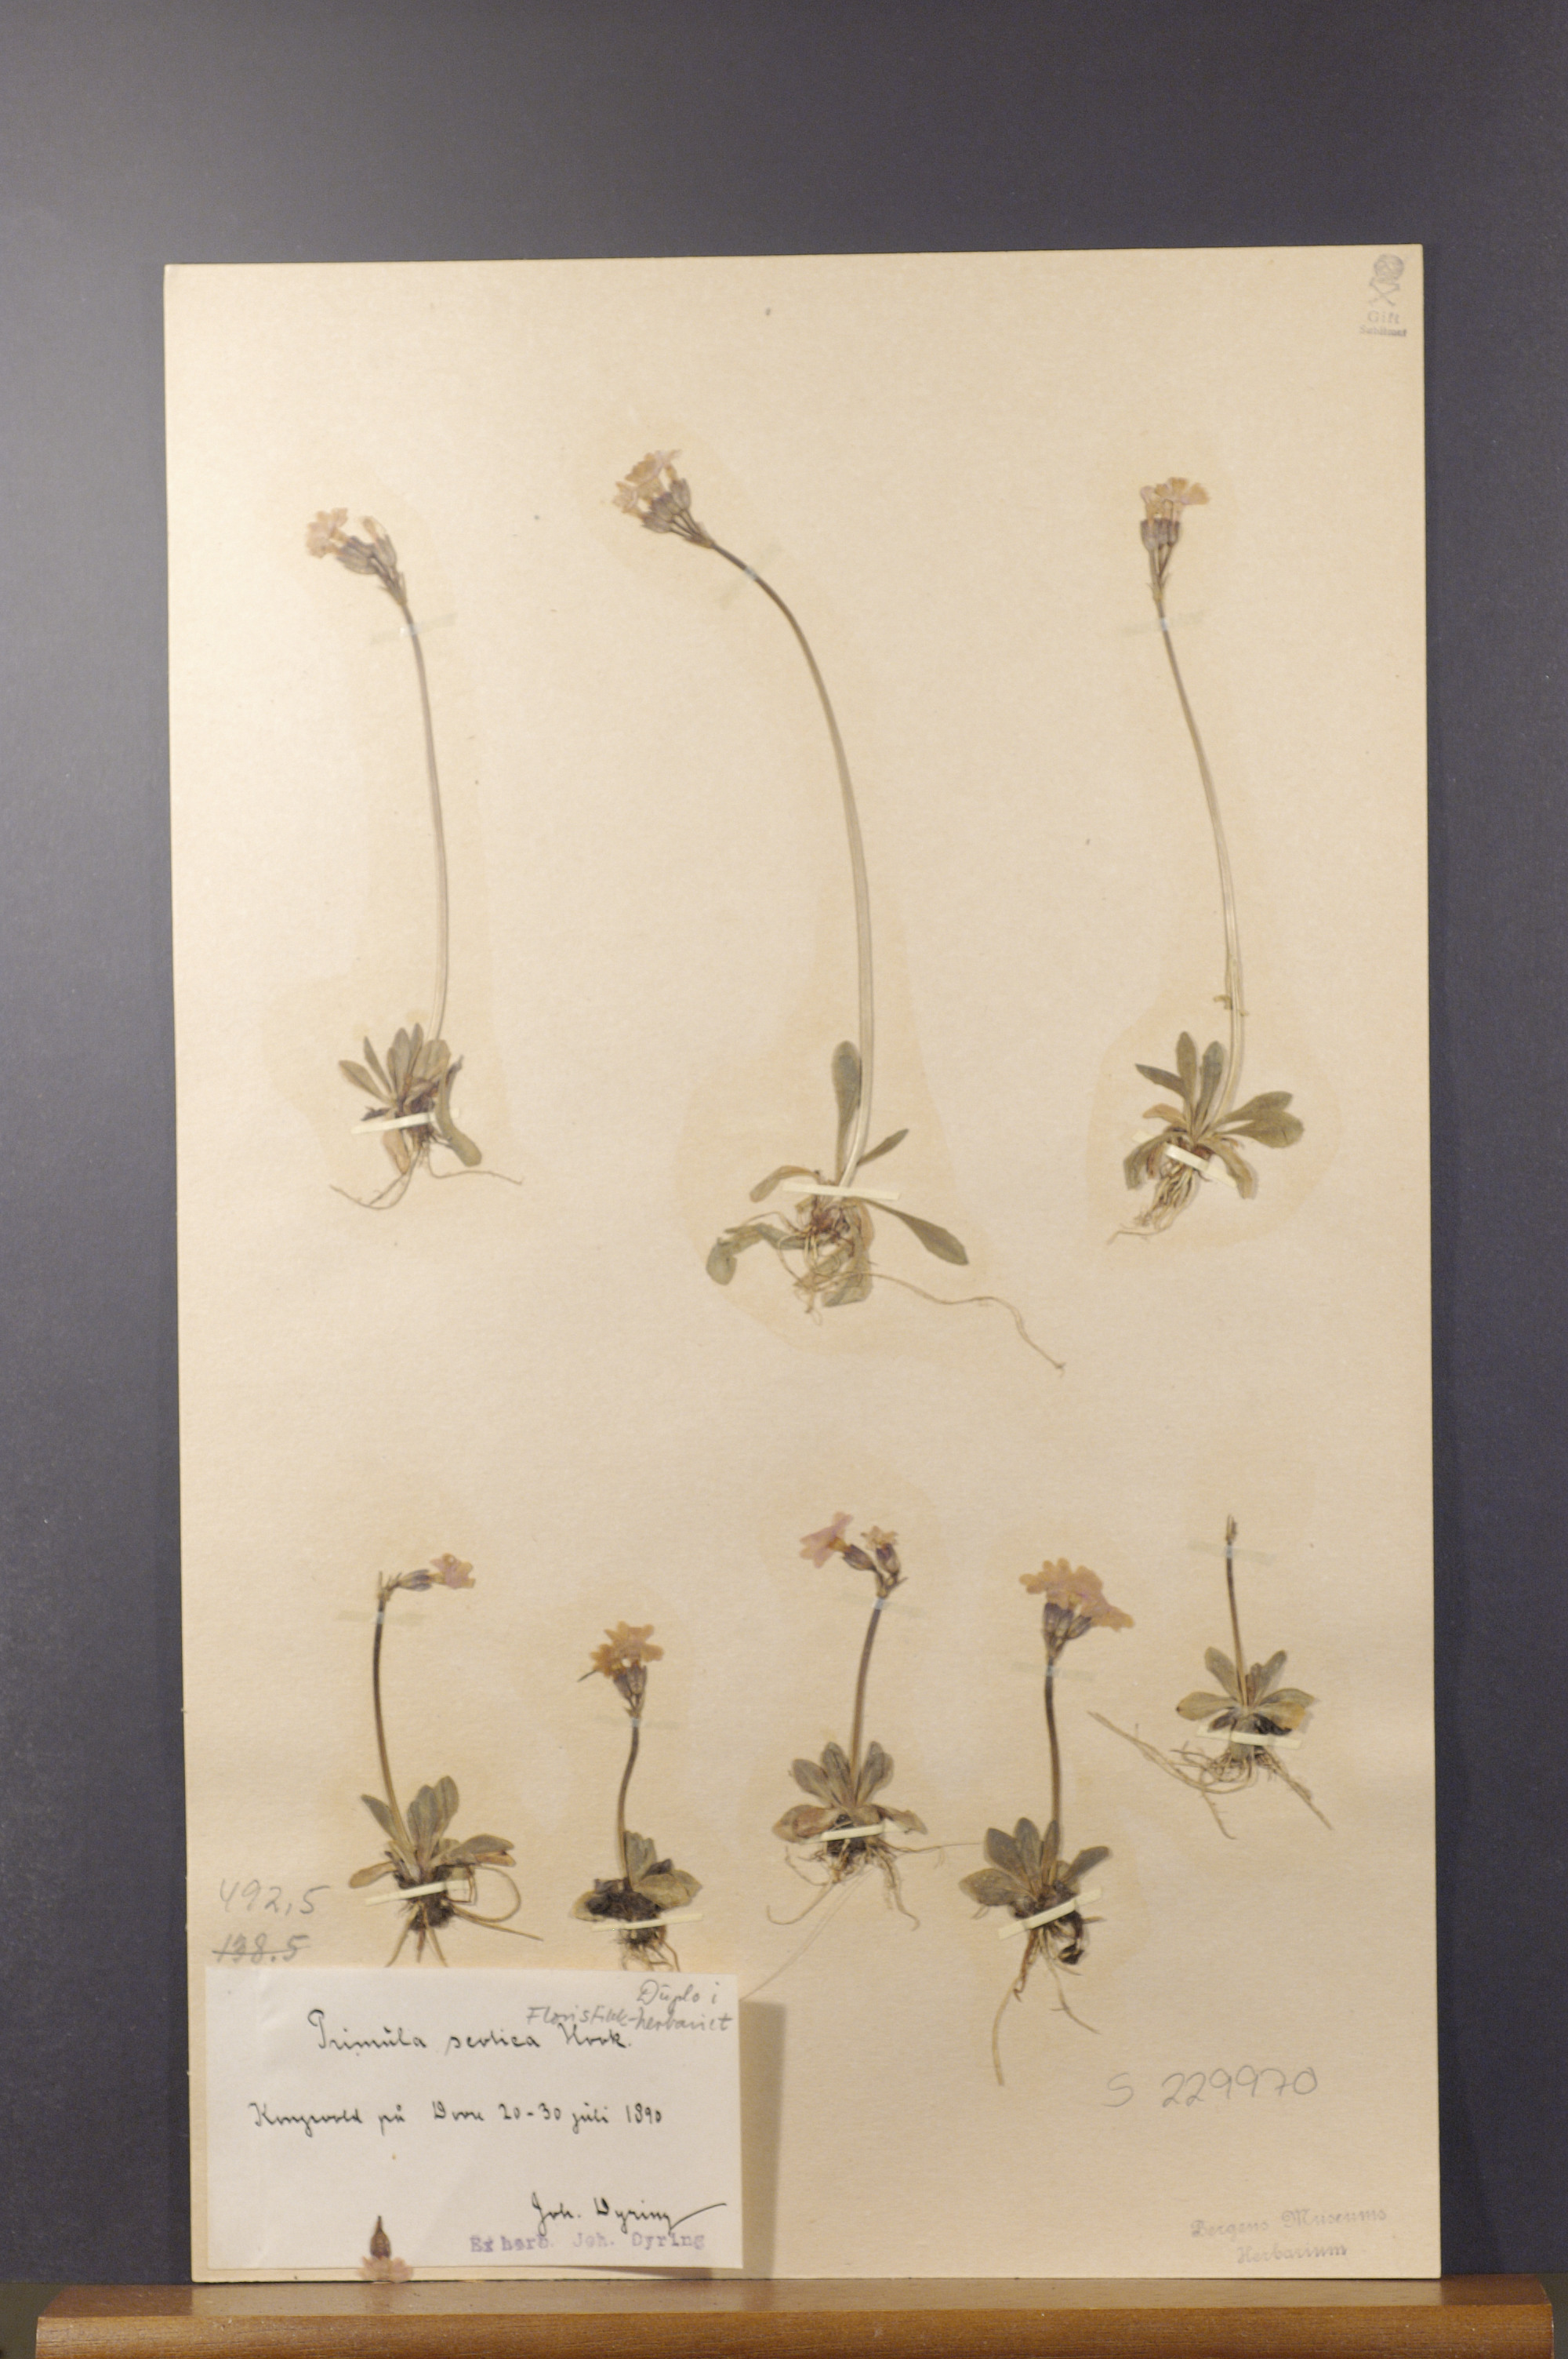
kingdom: Plantae
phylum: Tracheophyta
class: Magnoliopsida
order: Ericales
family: Primulaceae
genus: Primula
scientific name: Primula scotica
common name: Scottish primrose
